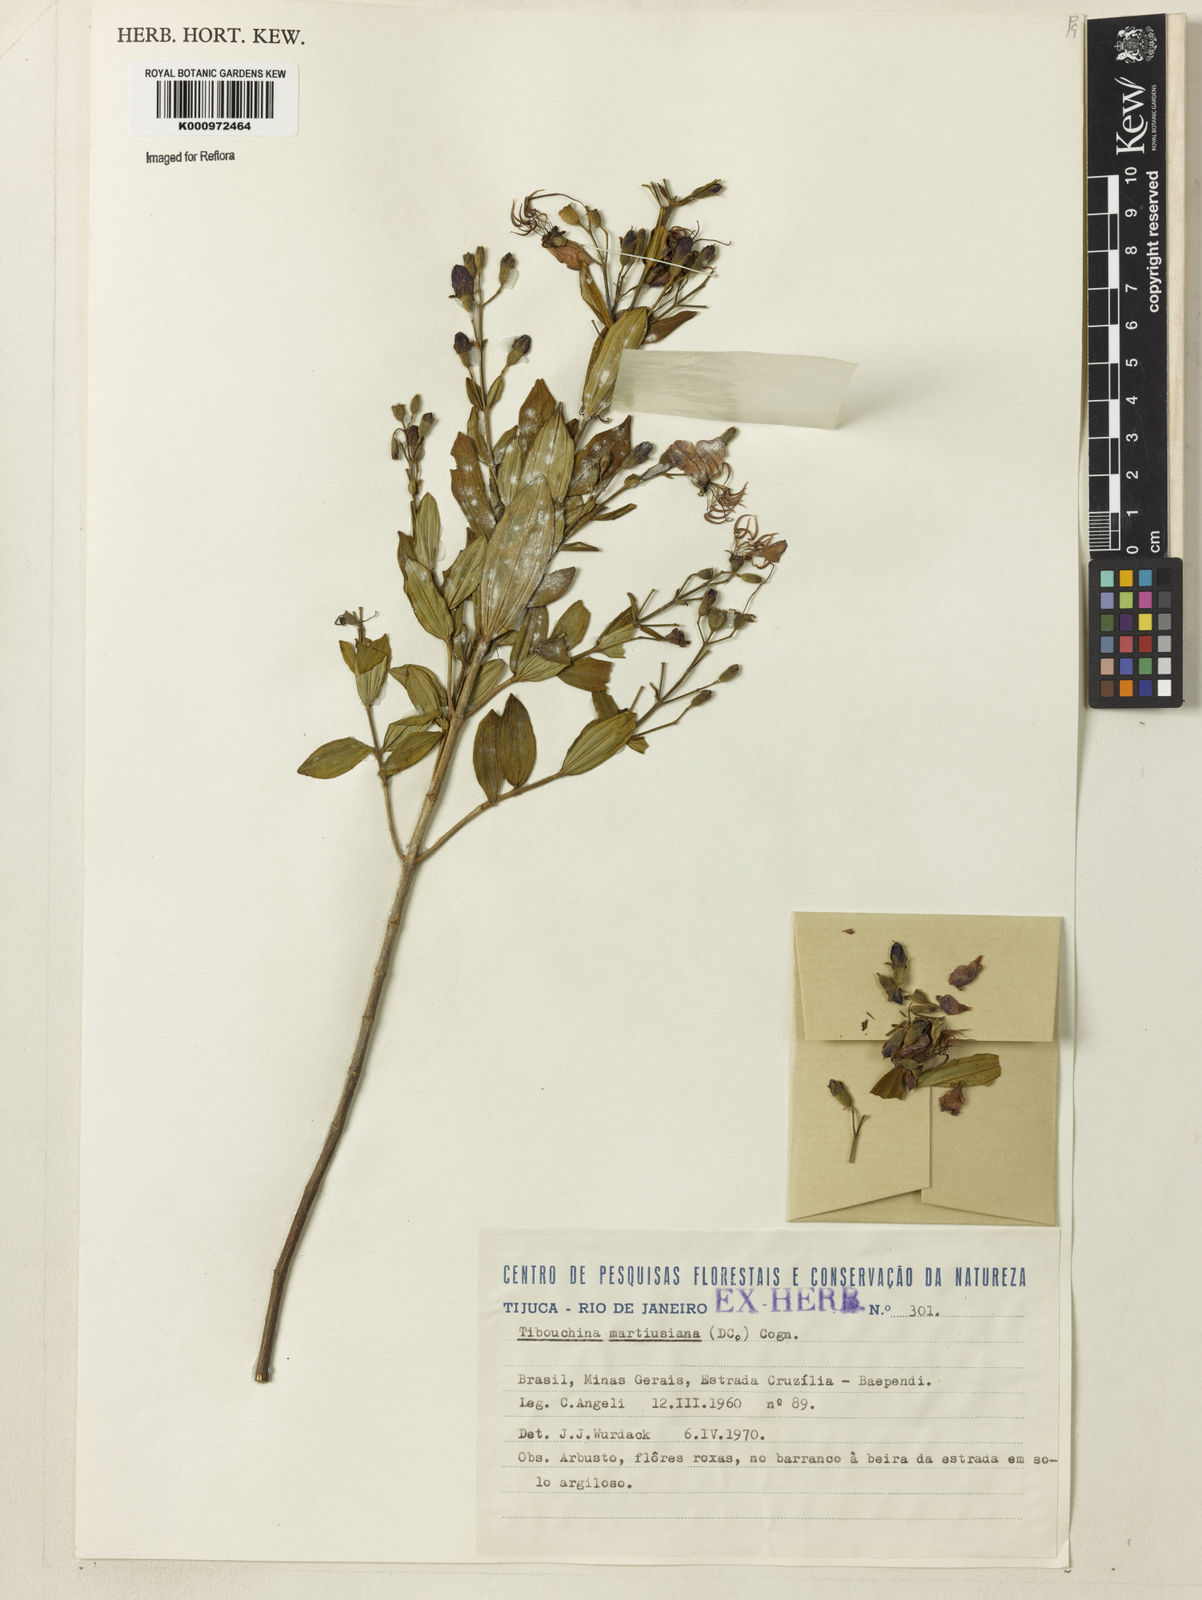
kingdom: Plantae
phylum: Tracheophyta
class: Magnoliopsida
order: Myrtales
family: Melastomataceae
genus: Pleroma
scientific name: Pleroma martiusianum
